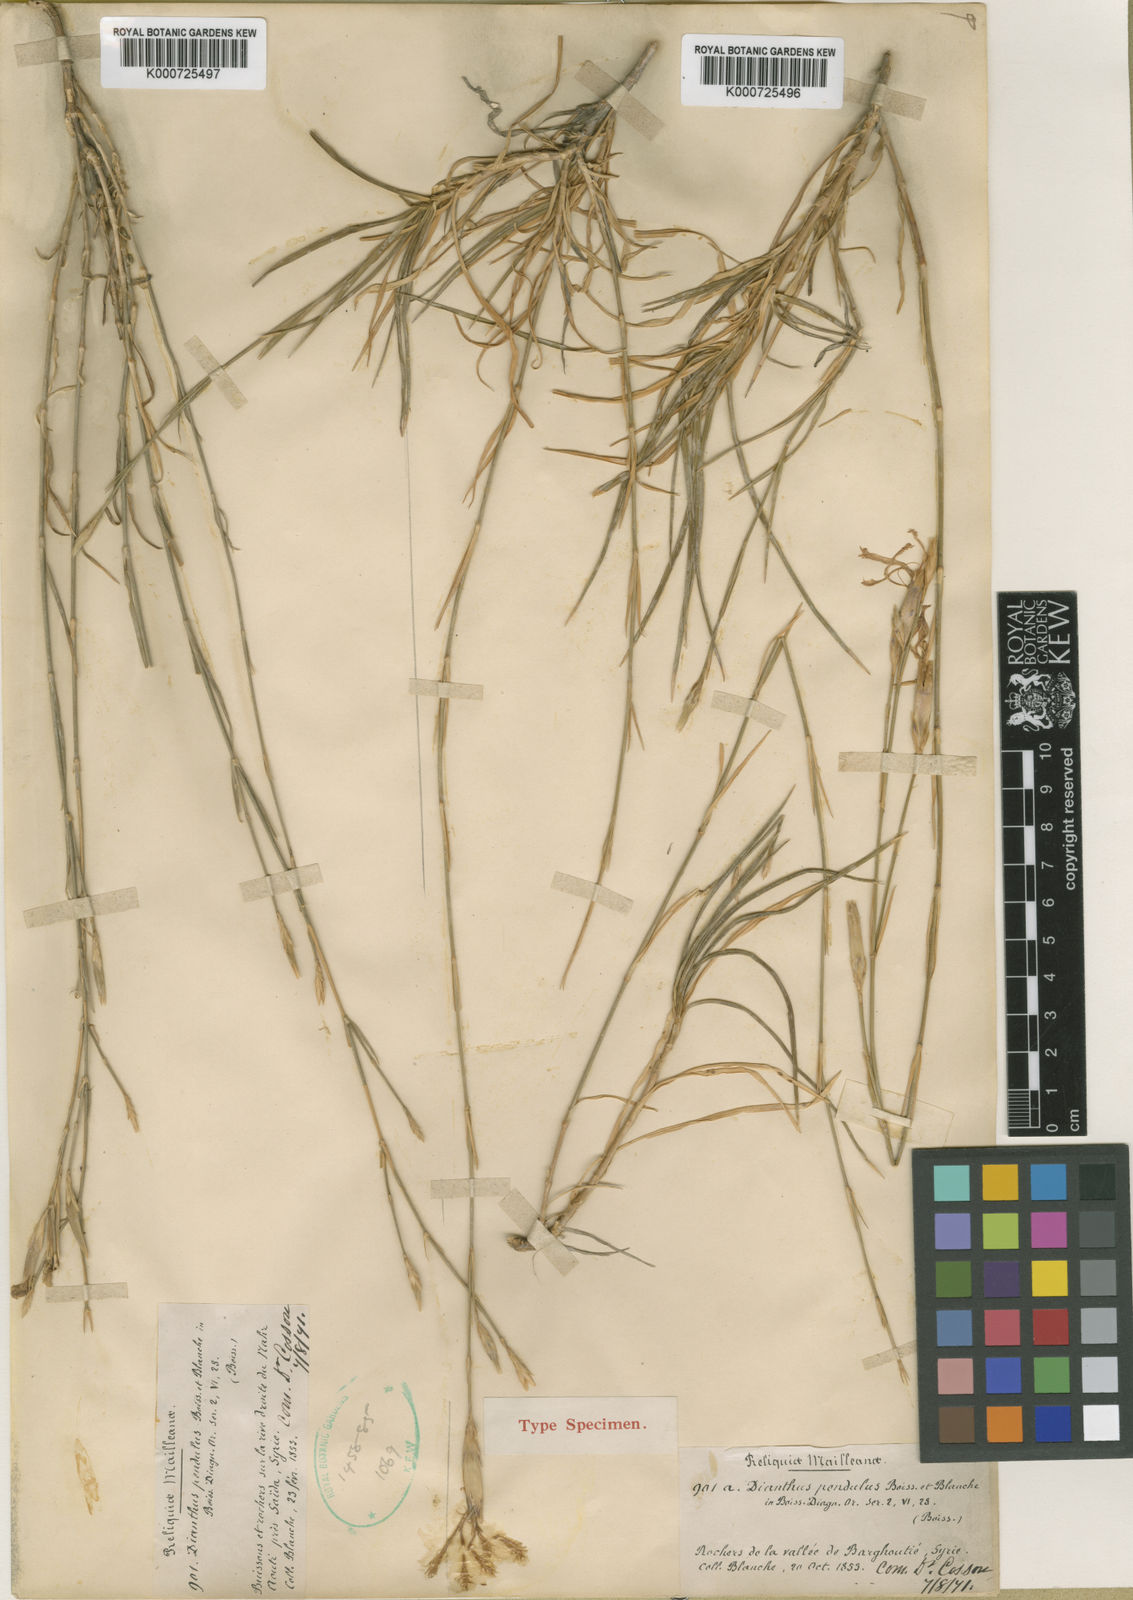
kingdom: Plantae
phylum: Tracheophyta
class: Magnoliopsida
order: Caryophyllales
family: Caryophyllaceae
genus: Dianthus
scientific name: Dianthus pendulus
